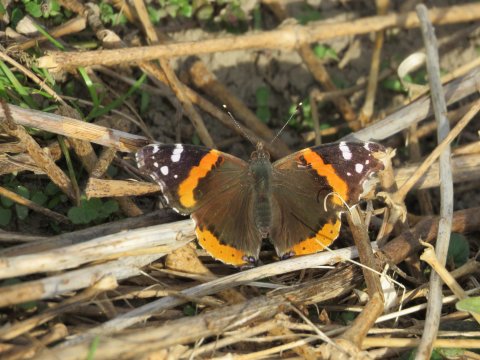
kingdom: Animalia
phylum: Arthropoda
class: Insecta
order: Lepidoptera
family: Nymphalidae
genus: Vanessa
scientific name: Vanessa atalanta
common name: Red Admiral
